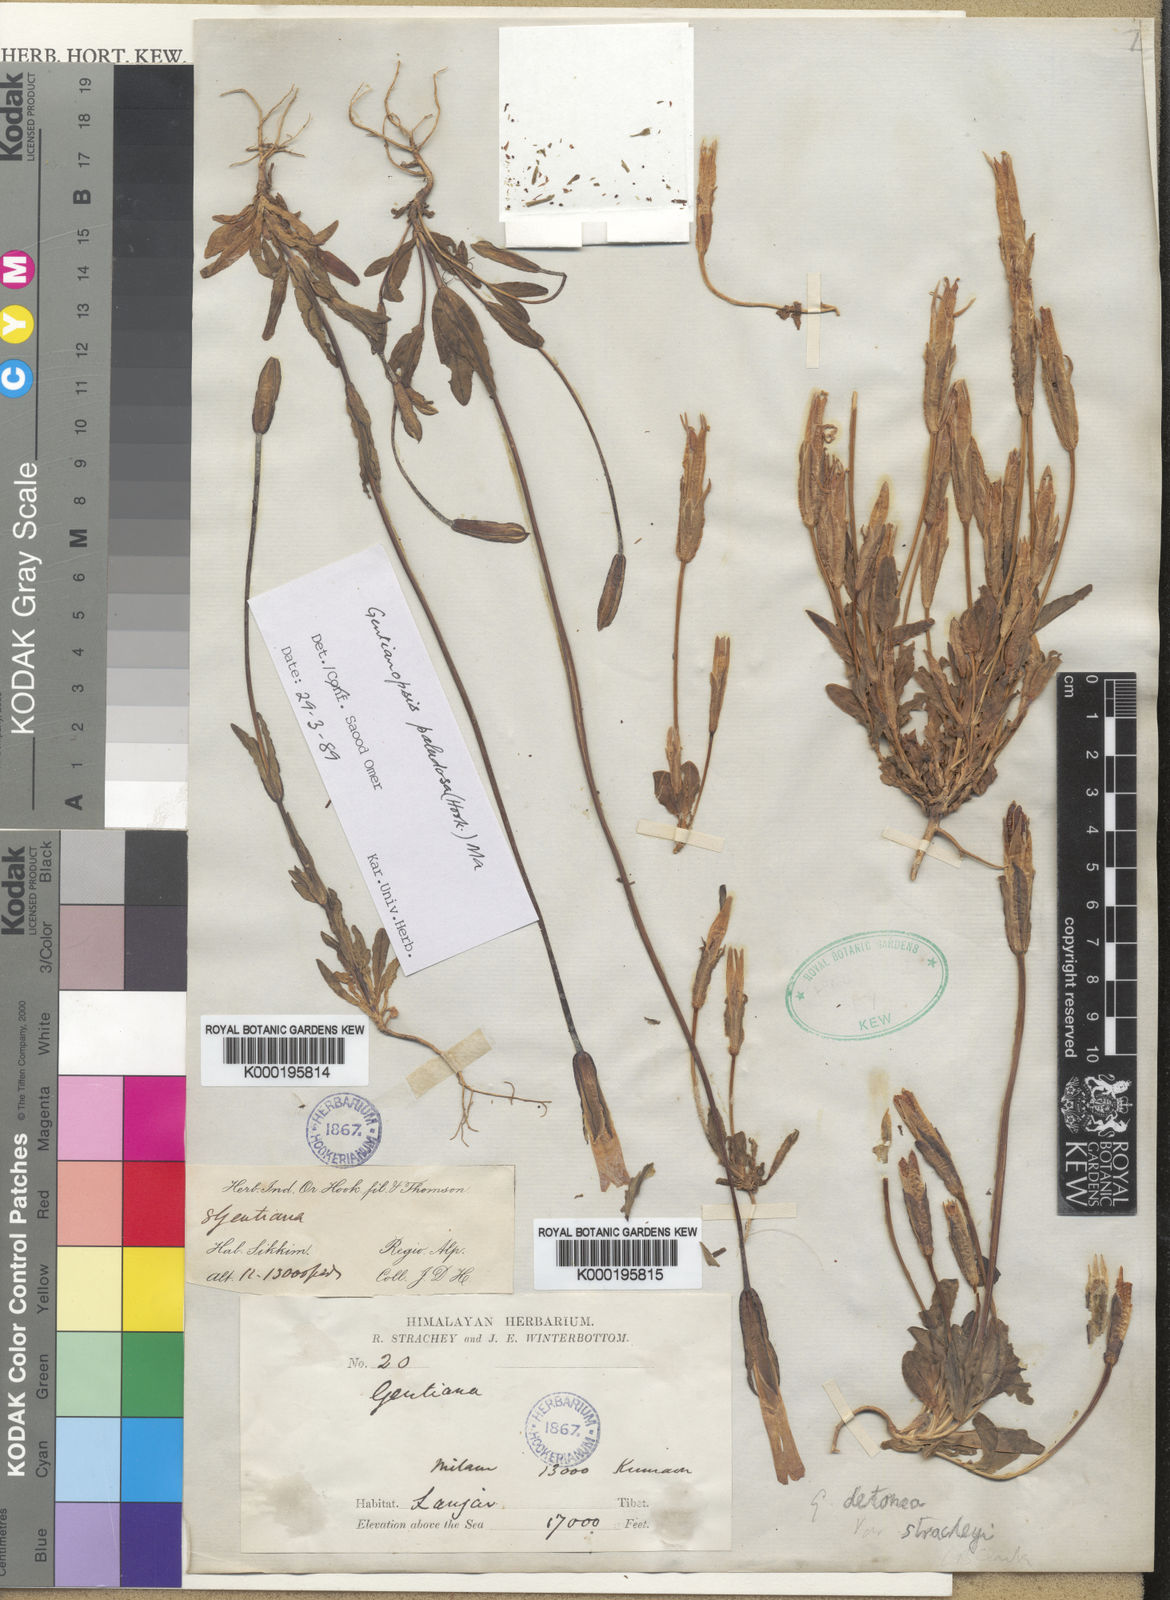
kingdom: Plantae
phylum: Tracheophyta
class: Magnoliopsida
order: Gentianales
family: Gentianaceae
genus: Gentianopsis
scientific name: Gentianopsis paludosa
